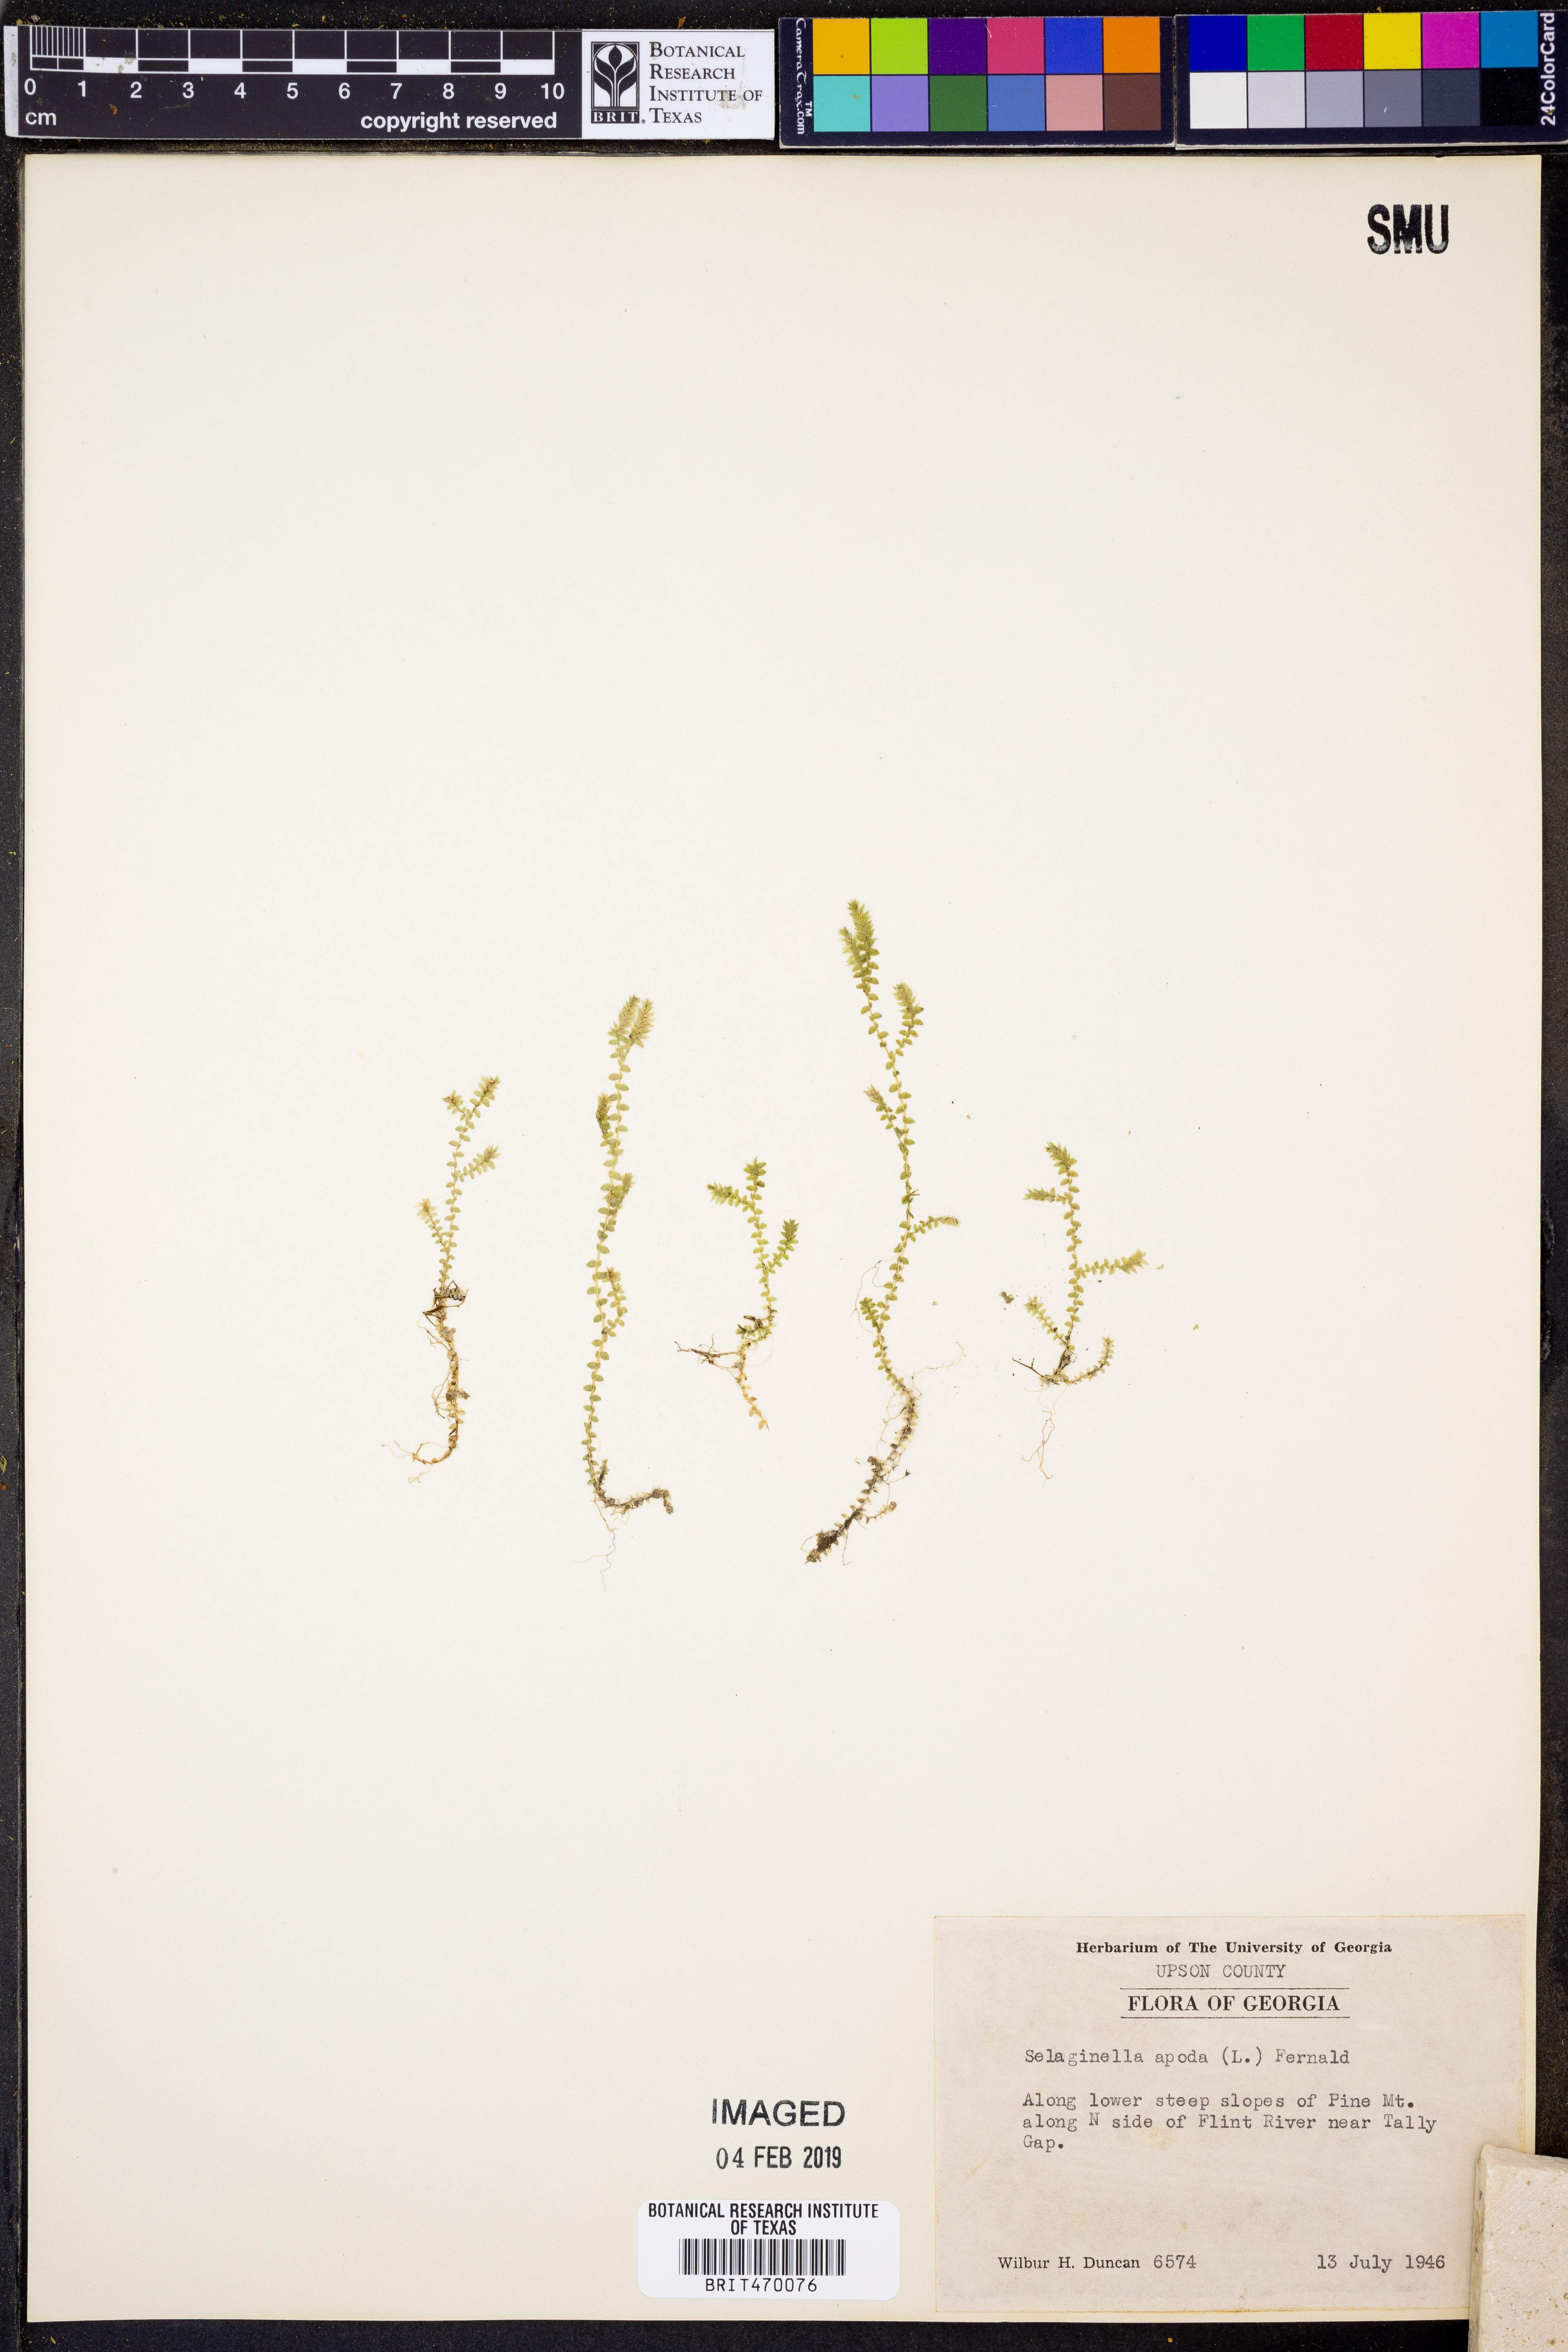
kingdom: Plantae
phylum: Tracheophyta
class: Lycopodiopsida
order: Selaginellales
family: Selaginellaceae
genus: Selaginella
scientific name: Selaginella apoda
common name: Creeping spikemoss
